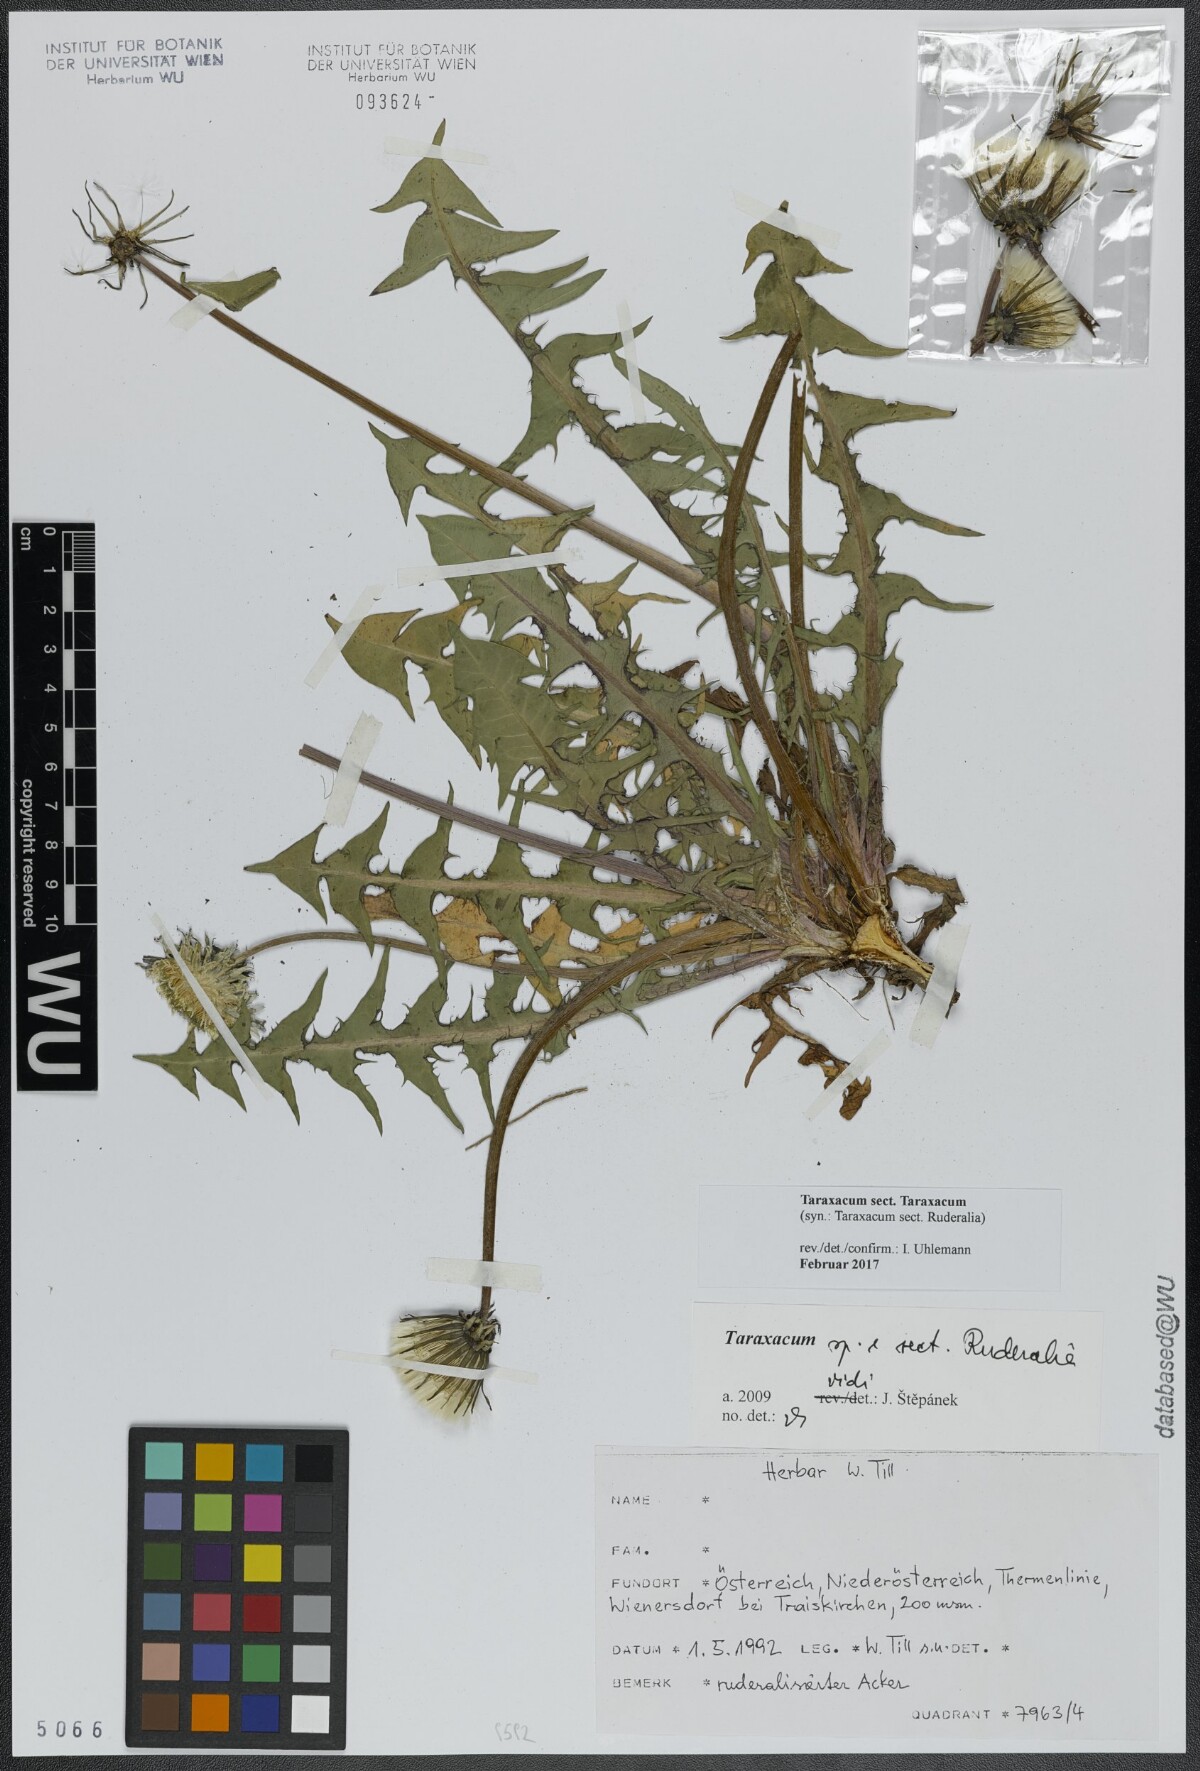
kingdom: Plantae
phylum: Tracheophyta
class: Magnoliopsida
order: Asterales
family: Asteraceae
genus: Taraxacum
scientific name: Taraxacum
